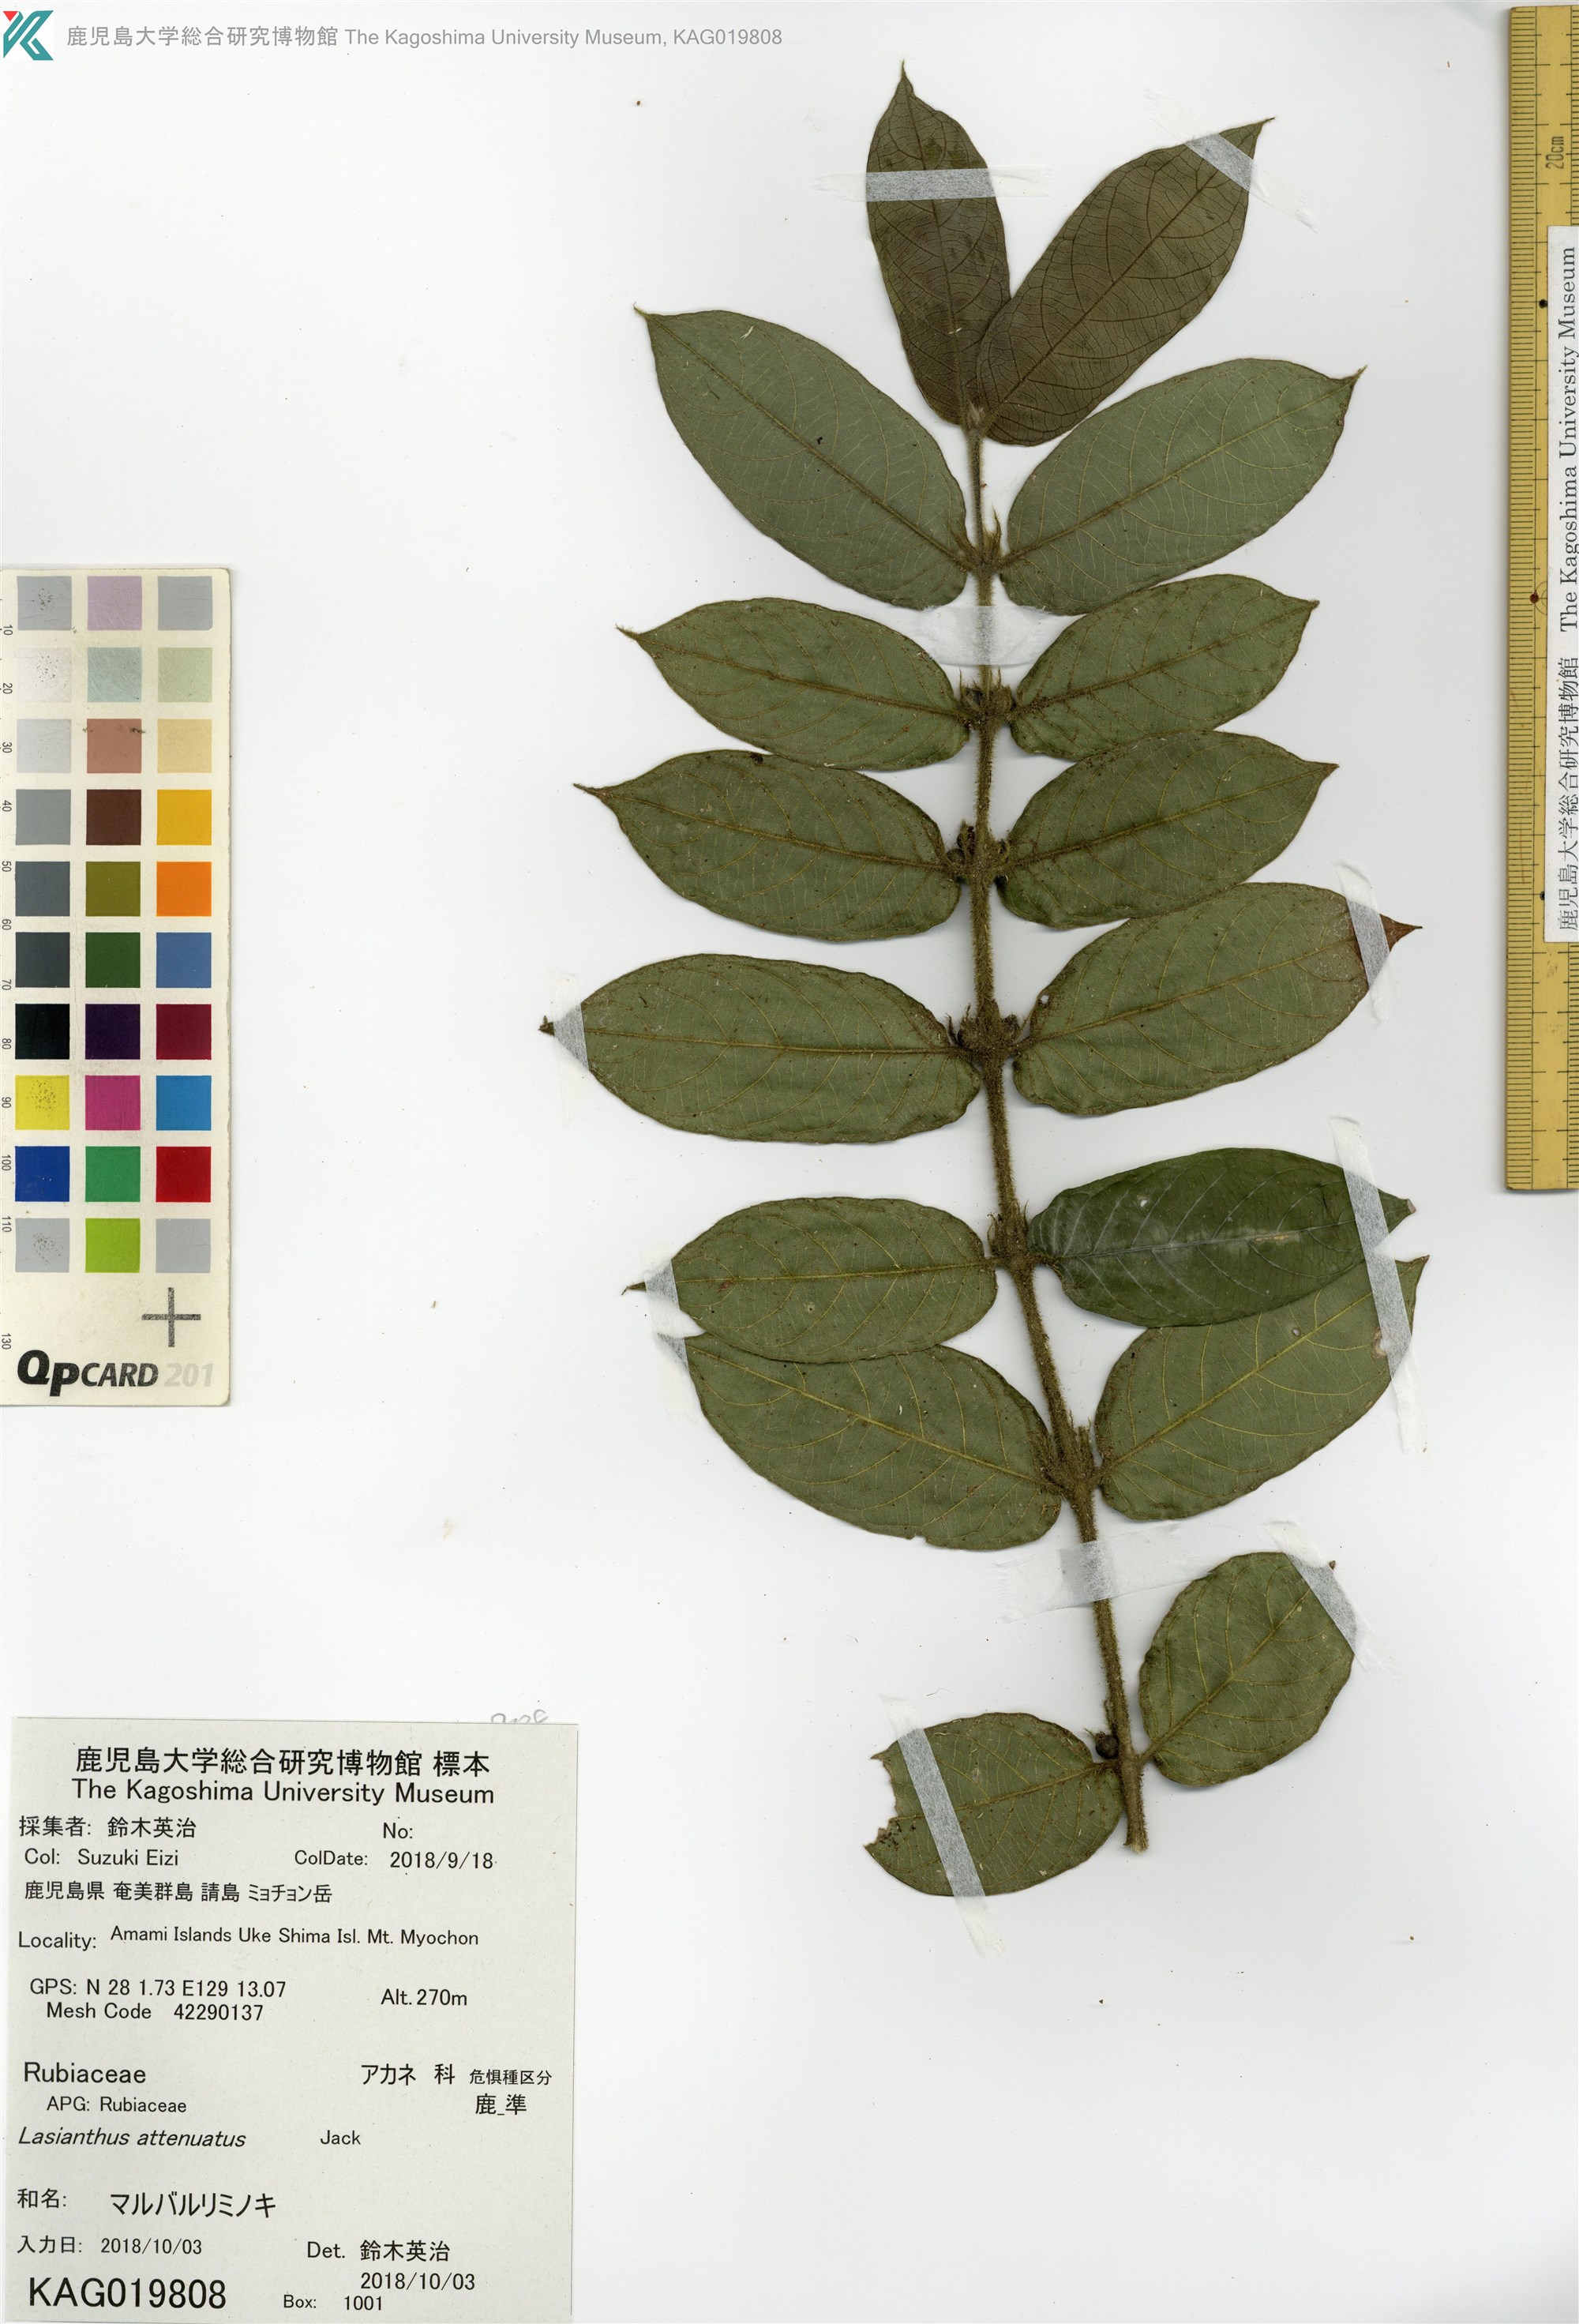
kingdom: Plantae
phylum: Tracheophyta
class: Magnoliopsida
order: Gentianales
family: Rubiaceae
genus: Lasianthus
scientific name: Lasianthus attenuatus
